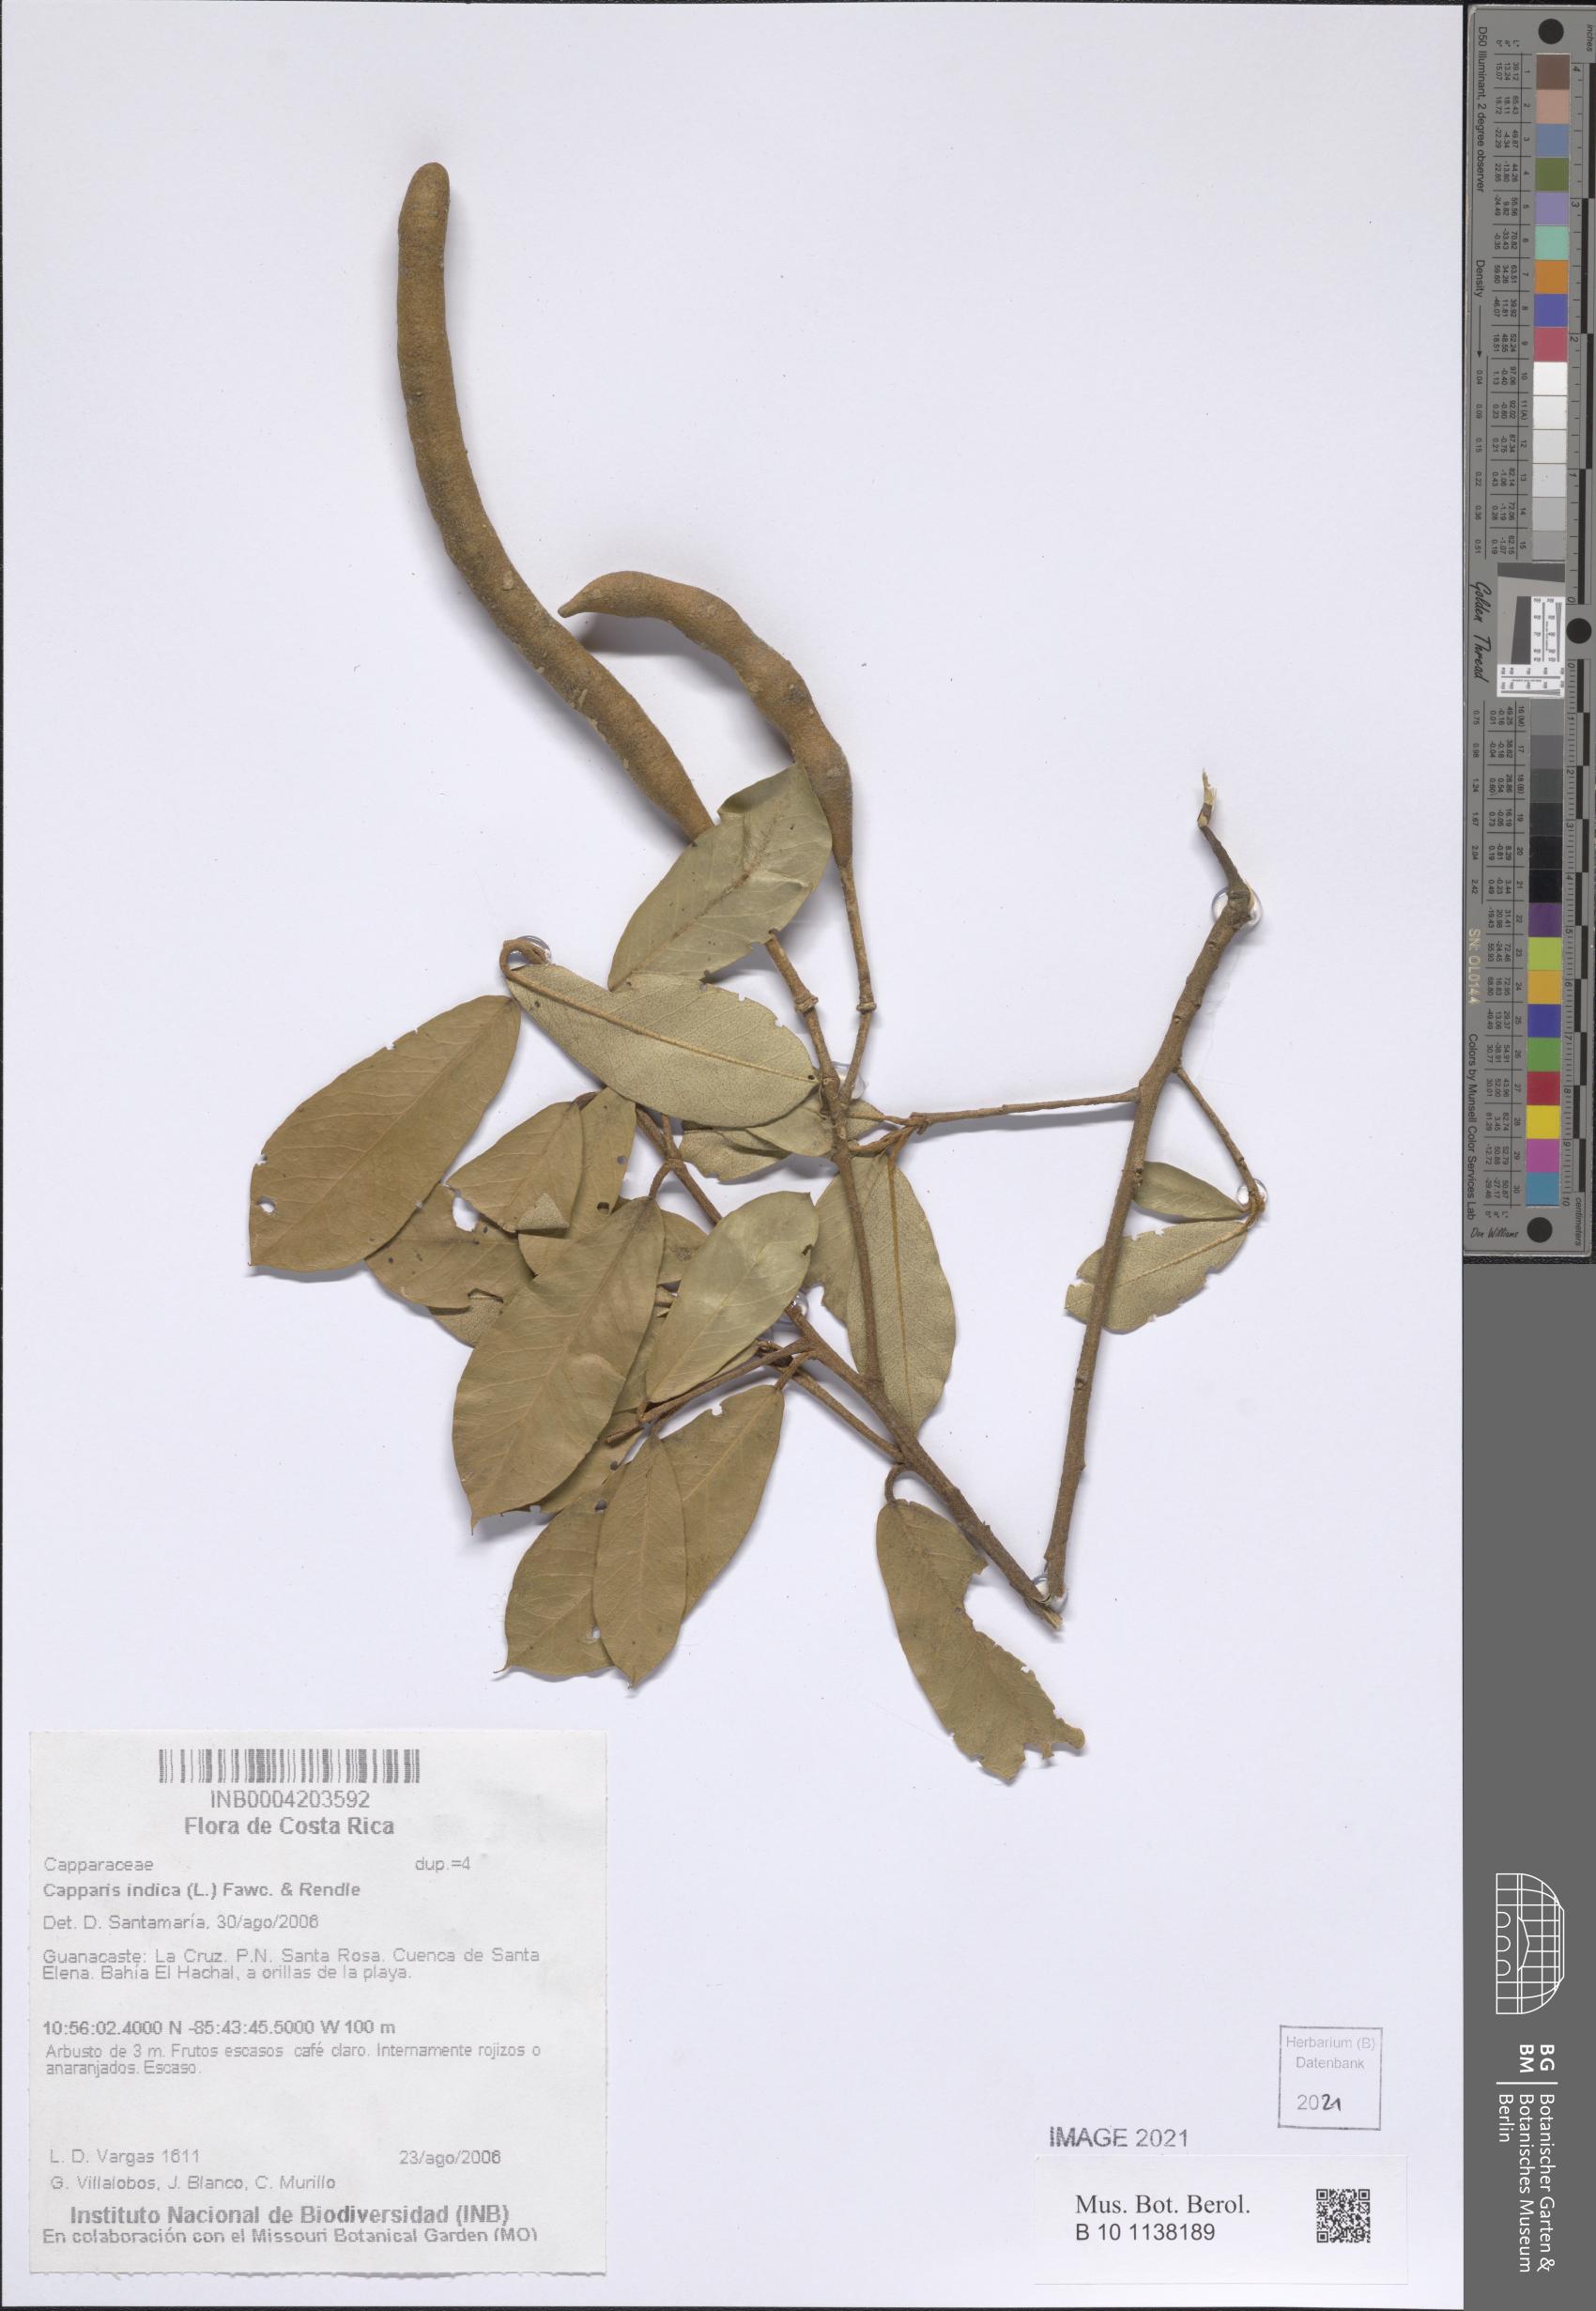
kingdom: Plantae
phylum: Tracheophyta
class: Magnoliopsida
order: Brassicales
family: Capparaceae
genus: Quadrella
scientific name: Quadrella indica
